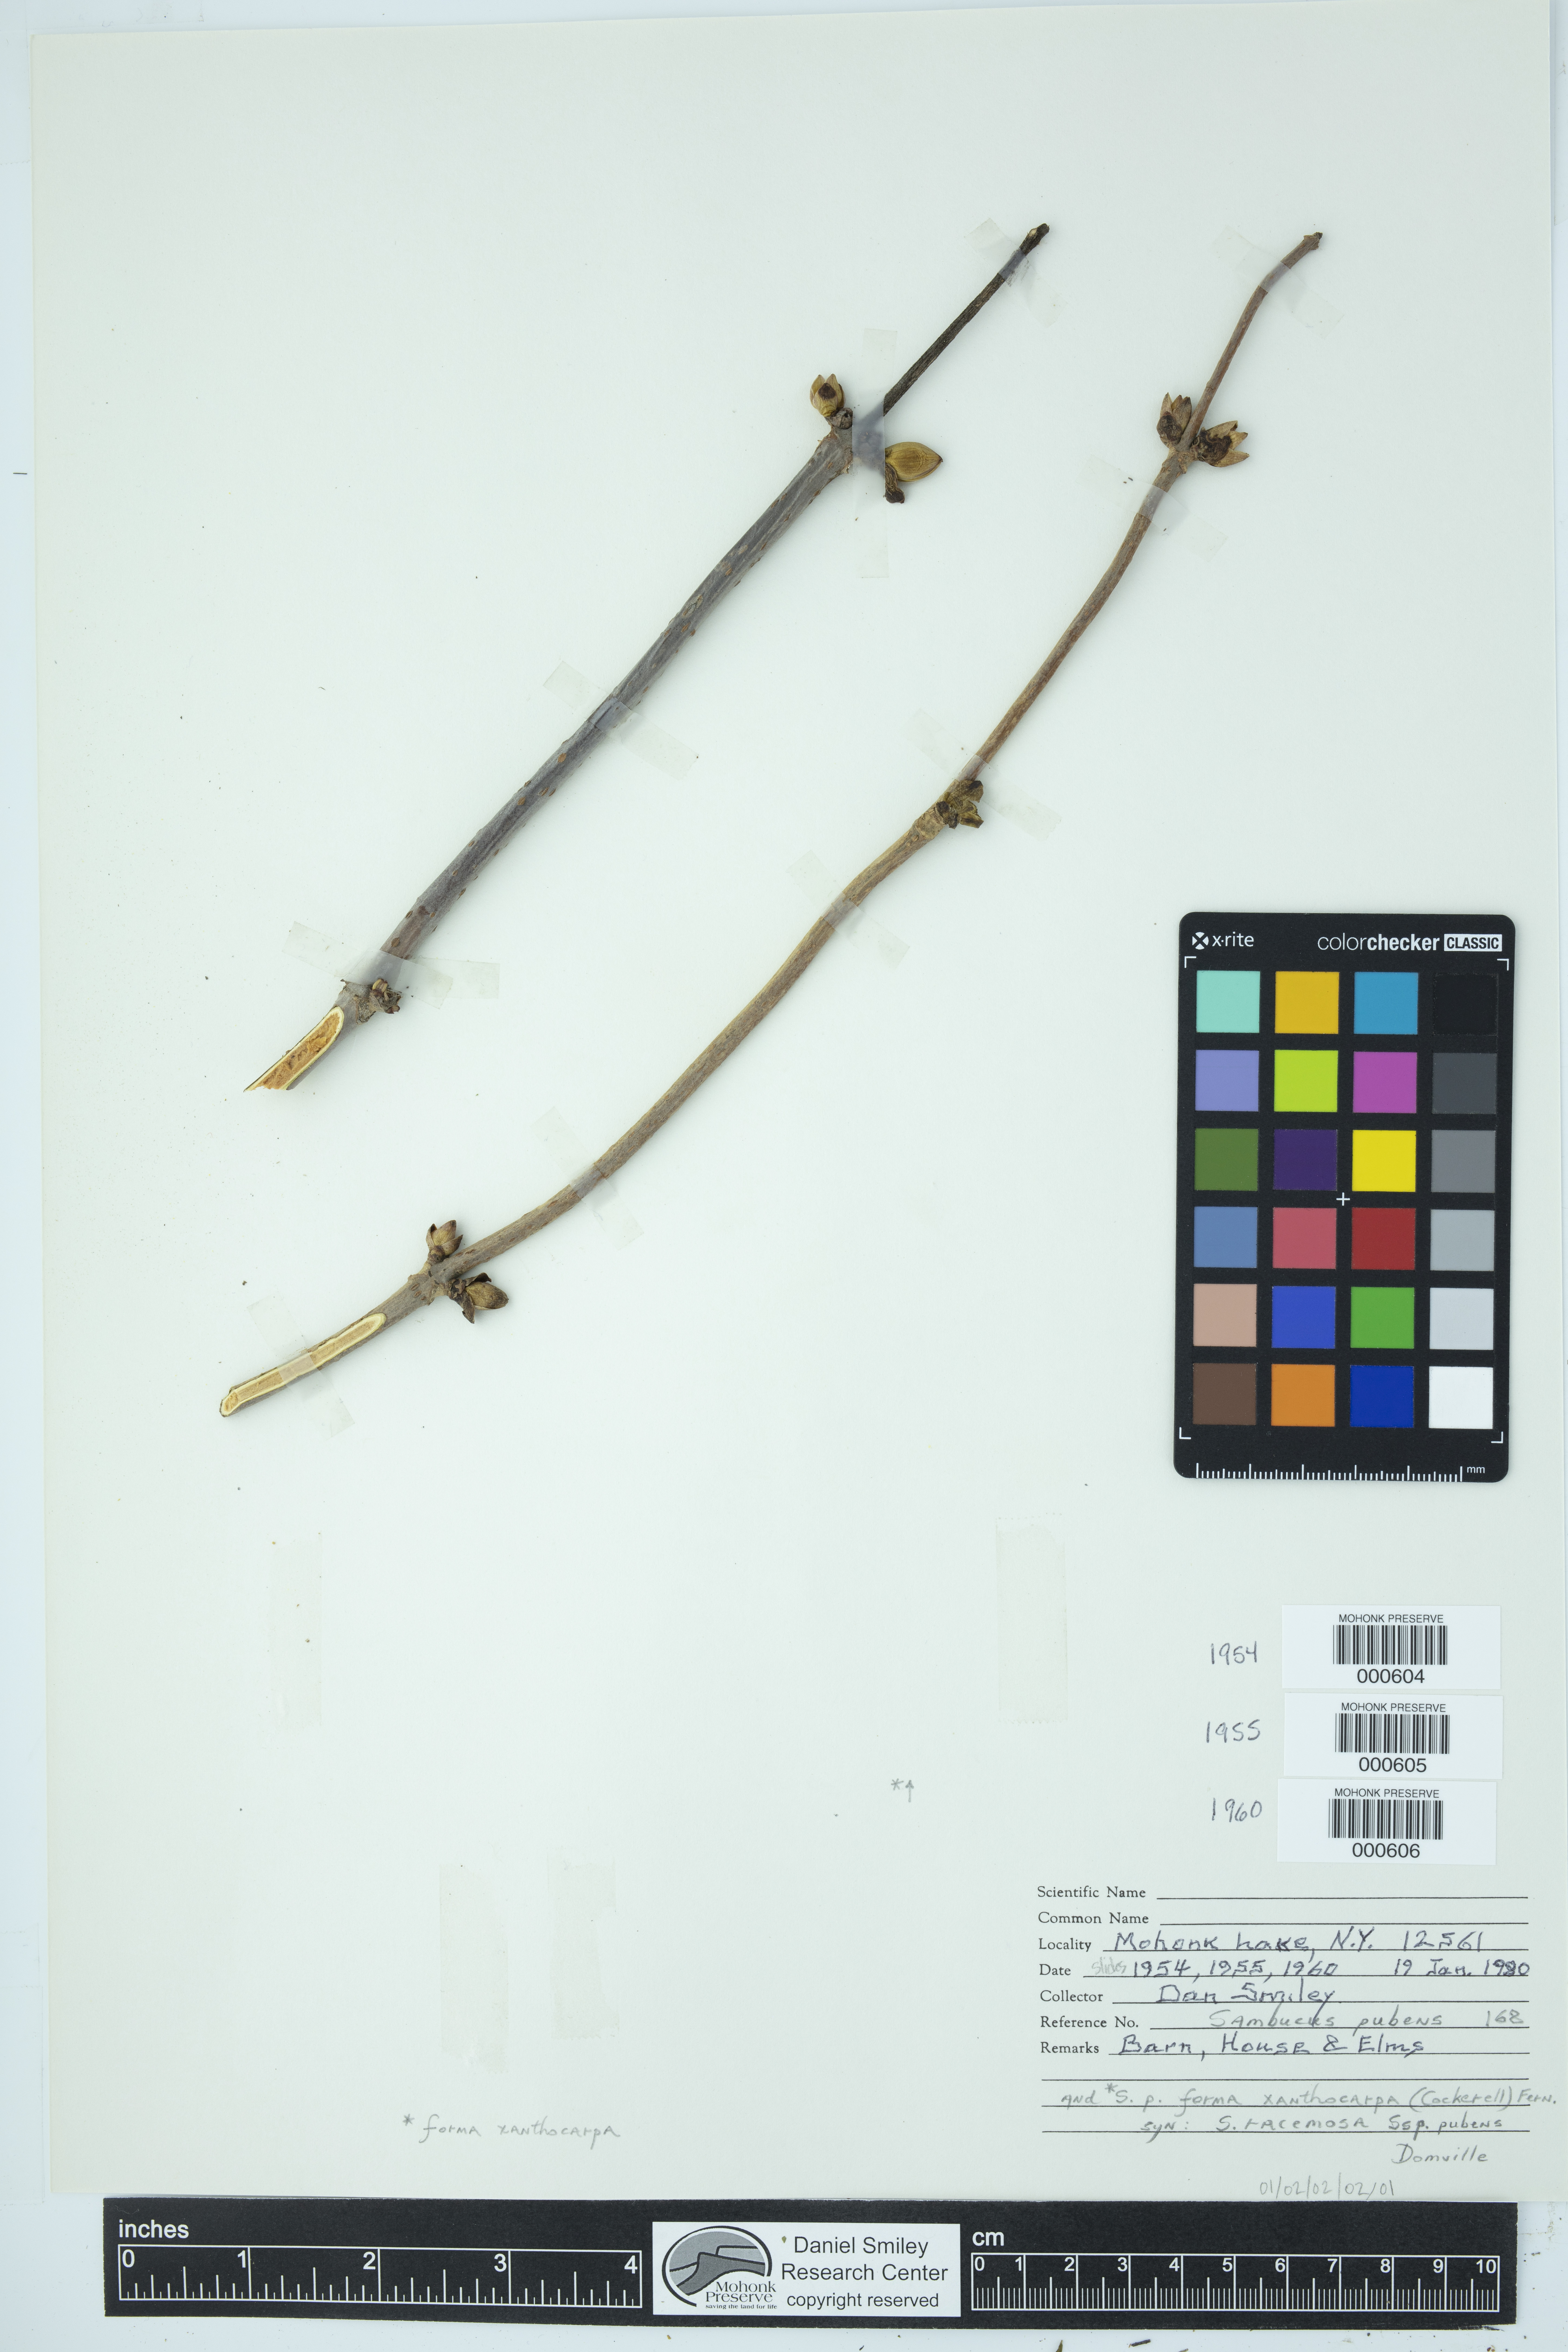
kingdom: Plantae
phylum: Tracheophyta
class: Magnoliopsida
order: Dipsacales
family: Viburnaceae
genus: Sambucus
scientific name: Sambucus racemosa
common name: Red-berried elder
